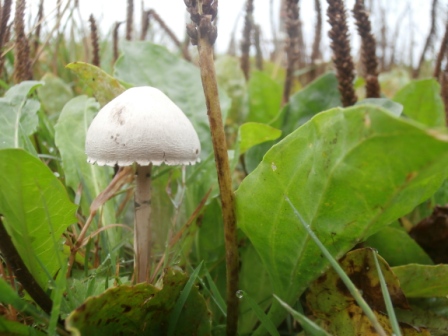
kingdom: Fungi
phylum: Basidiomycota
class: Agaricomycetes
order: Agaricales
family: Bolbitiaceae
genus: Panaeolus
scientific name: Panaeolus papilionaceus
